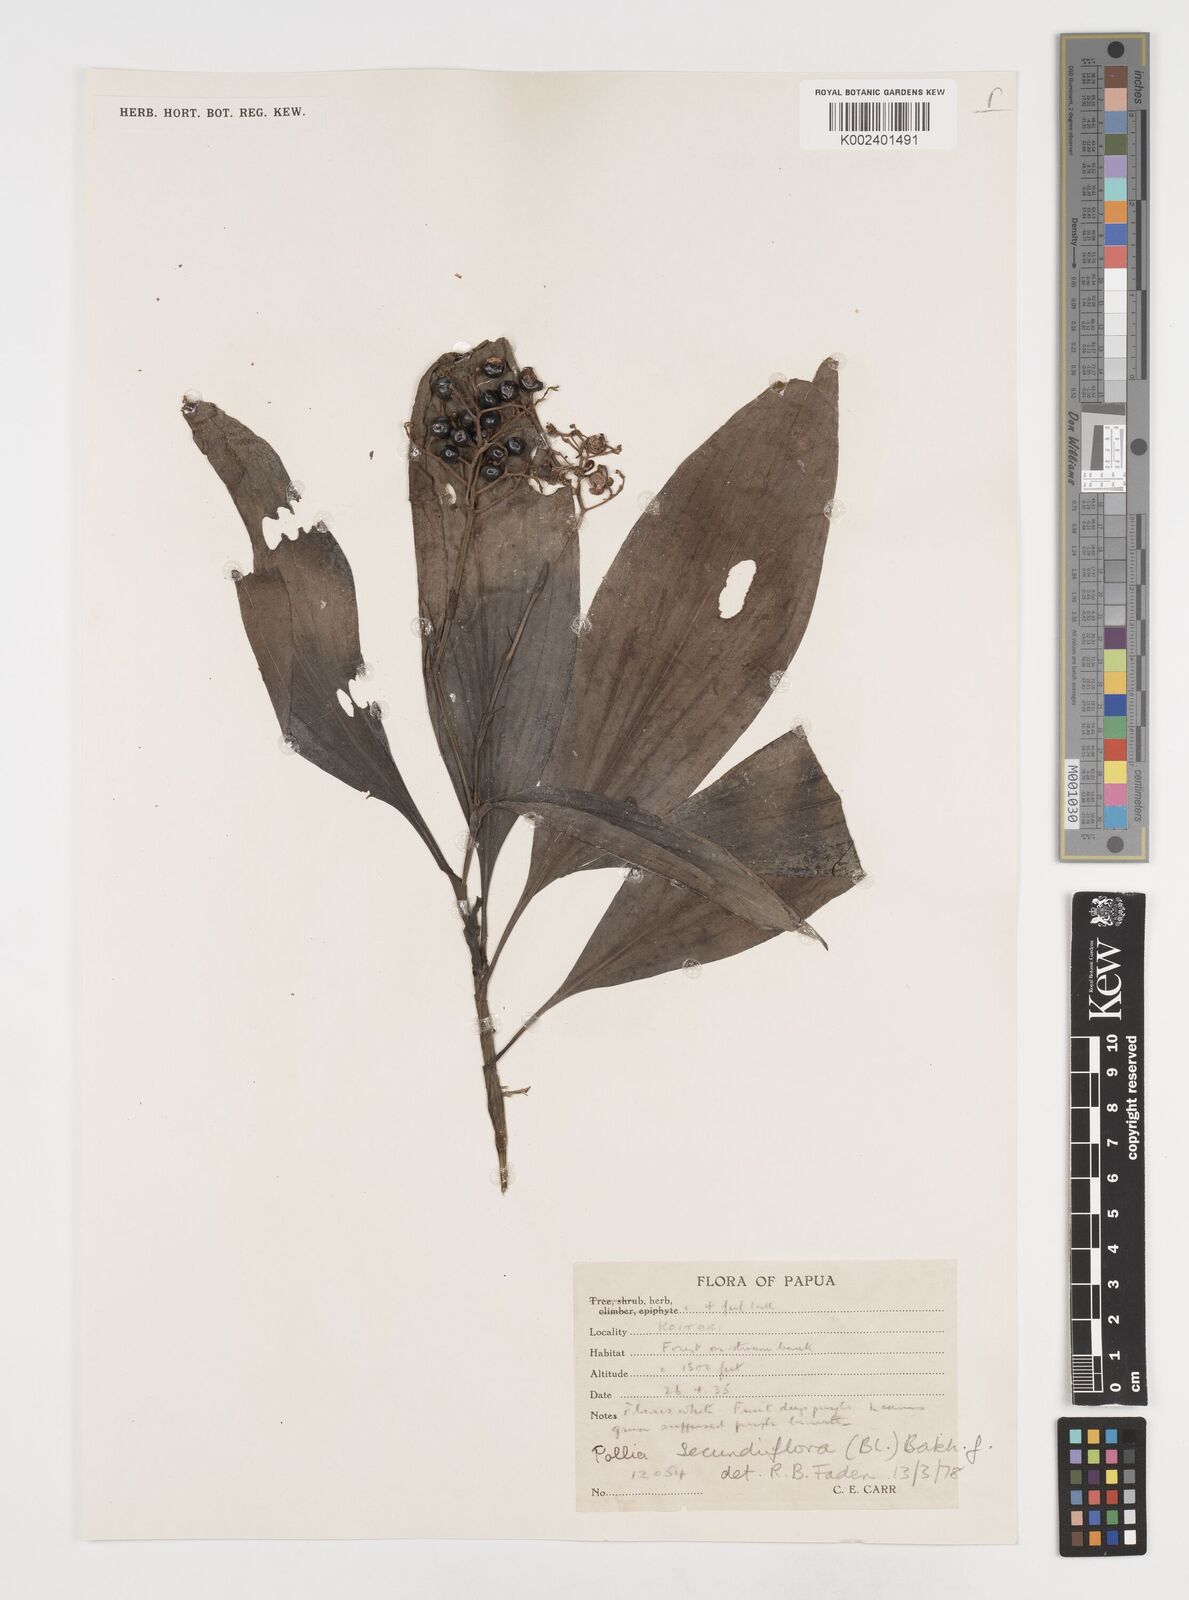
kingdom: Plantae
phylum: Tracheophyta
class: Liliopsida
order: Commelinales
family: Commelinaceae
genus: Pollia
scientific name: Pollia secundiflora
